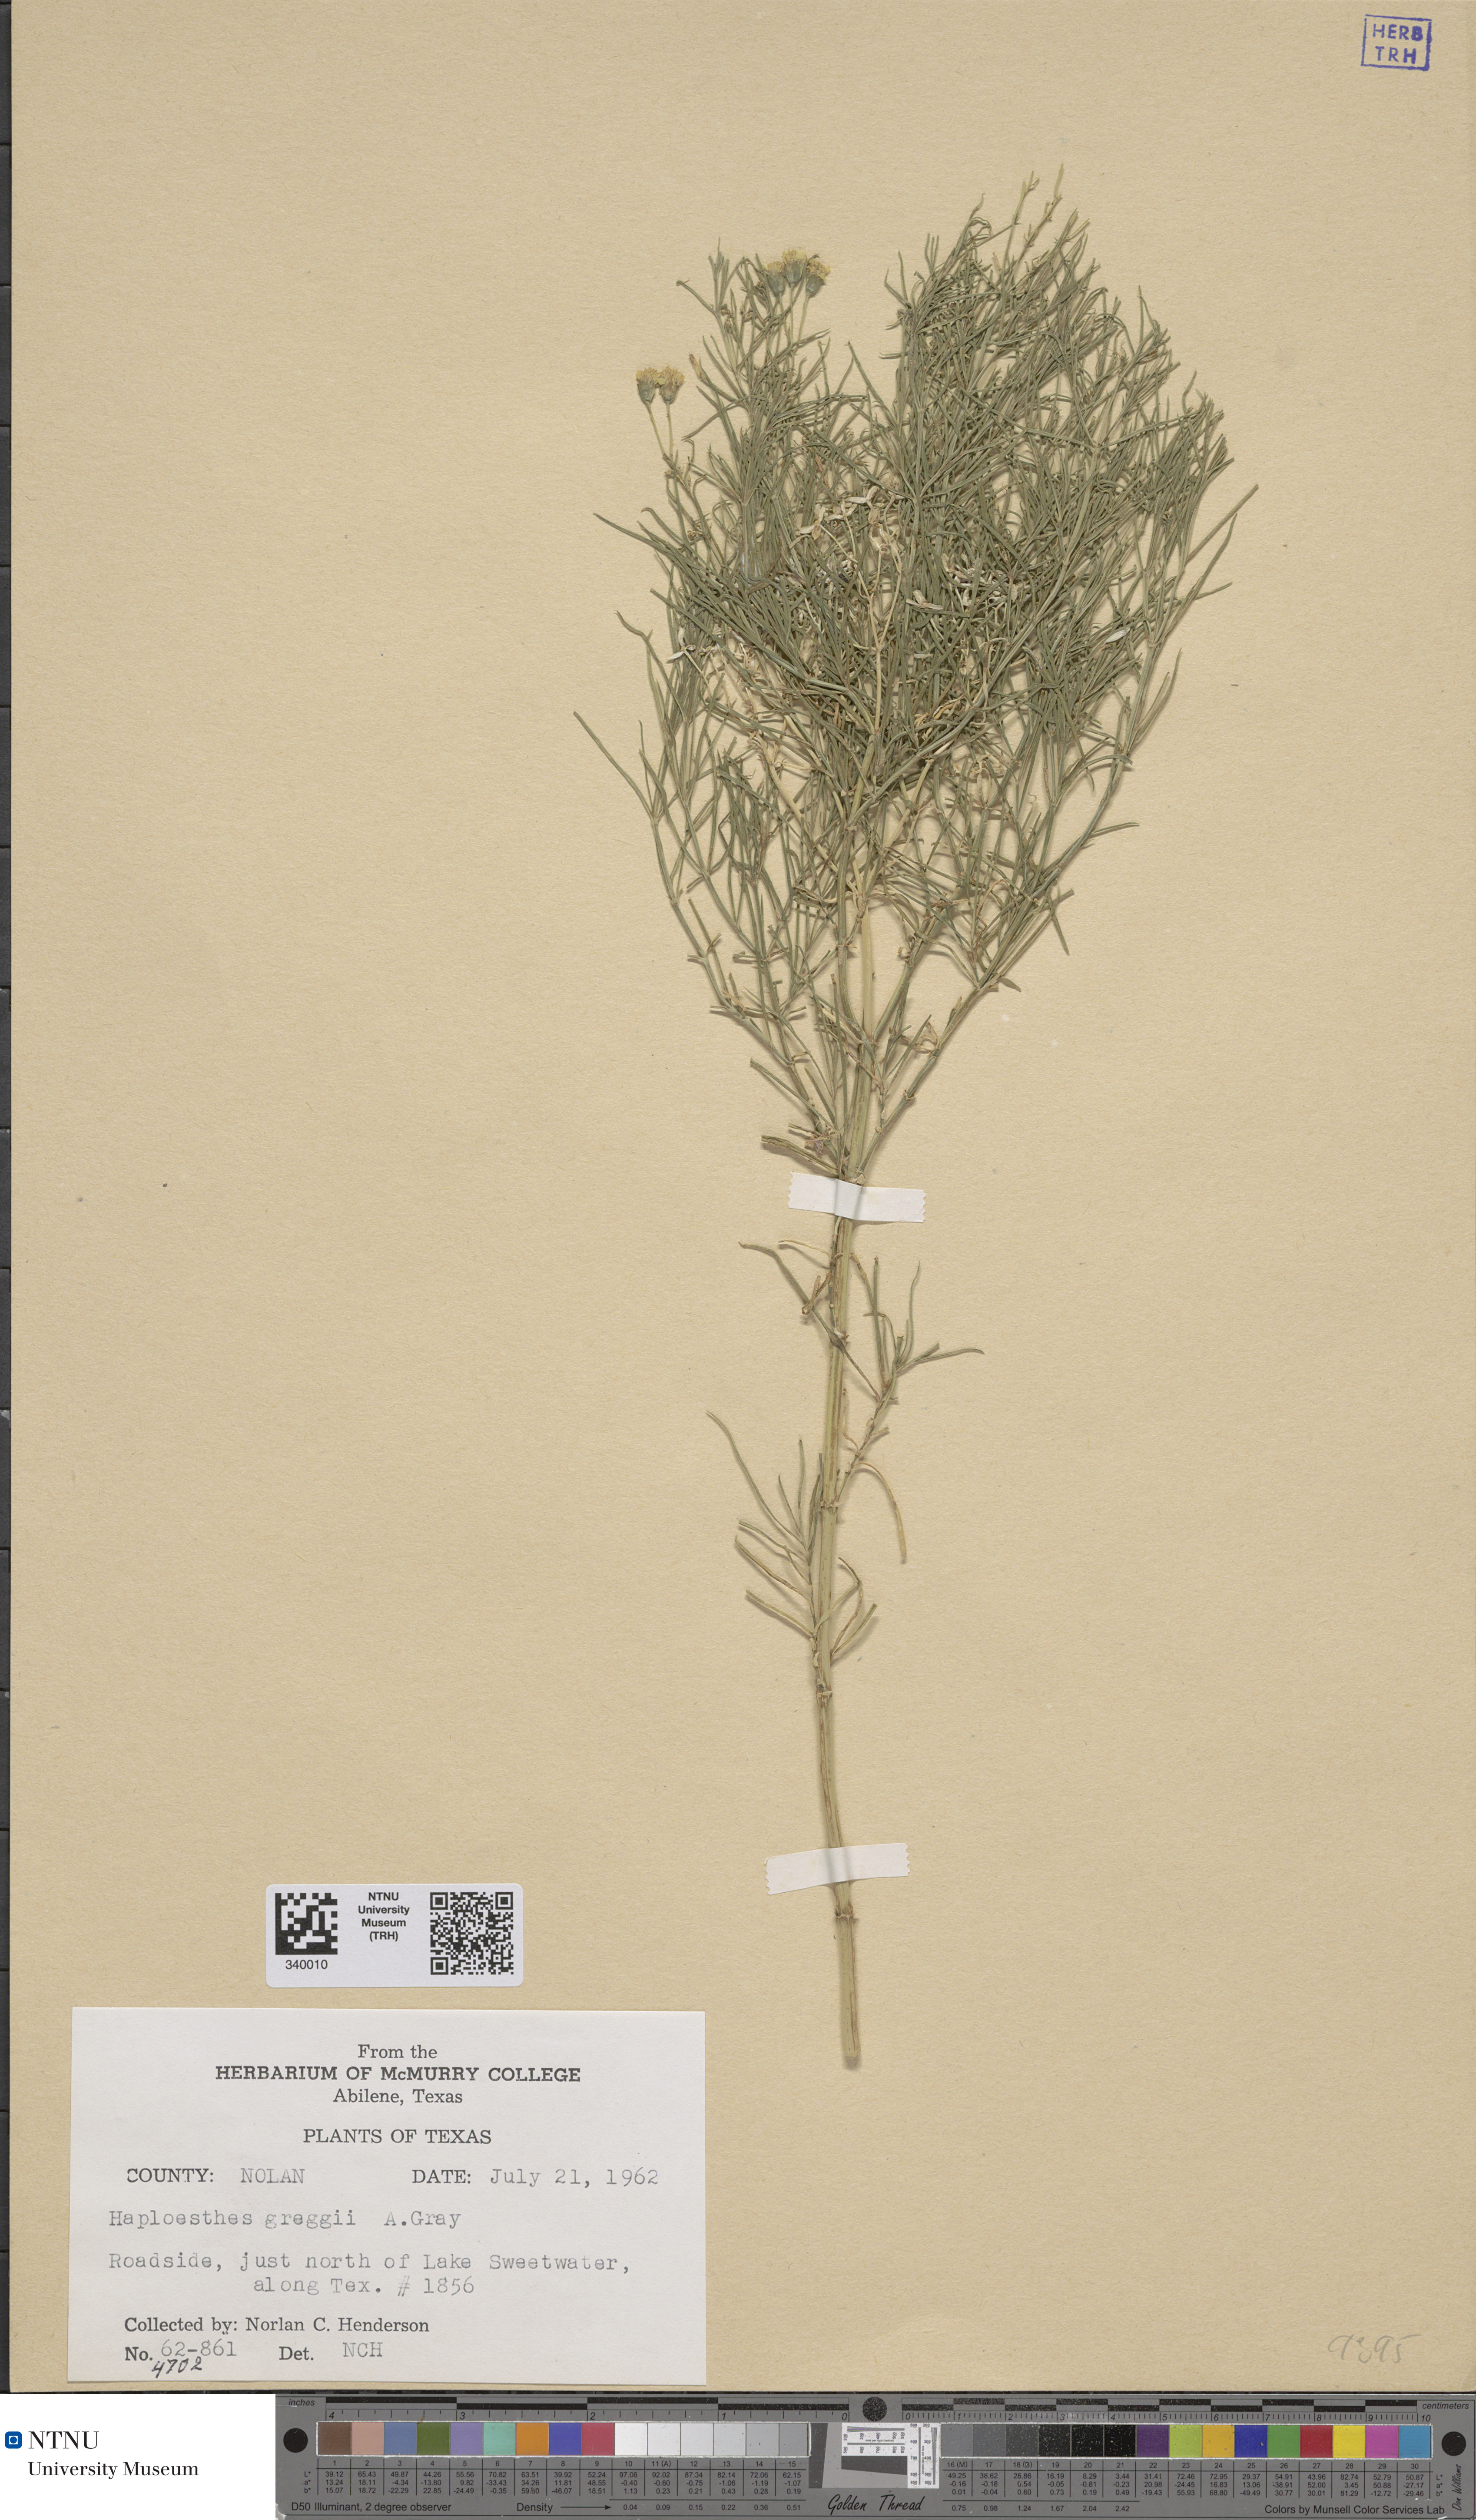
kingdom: Plantae
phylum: Tracheophyta
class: Magnoliopsida
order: Asterales
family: Asteraceae
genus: Haploesthes
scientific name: Haploesthes greggii
